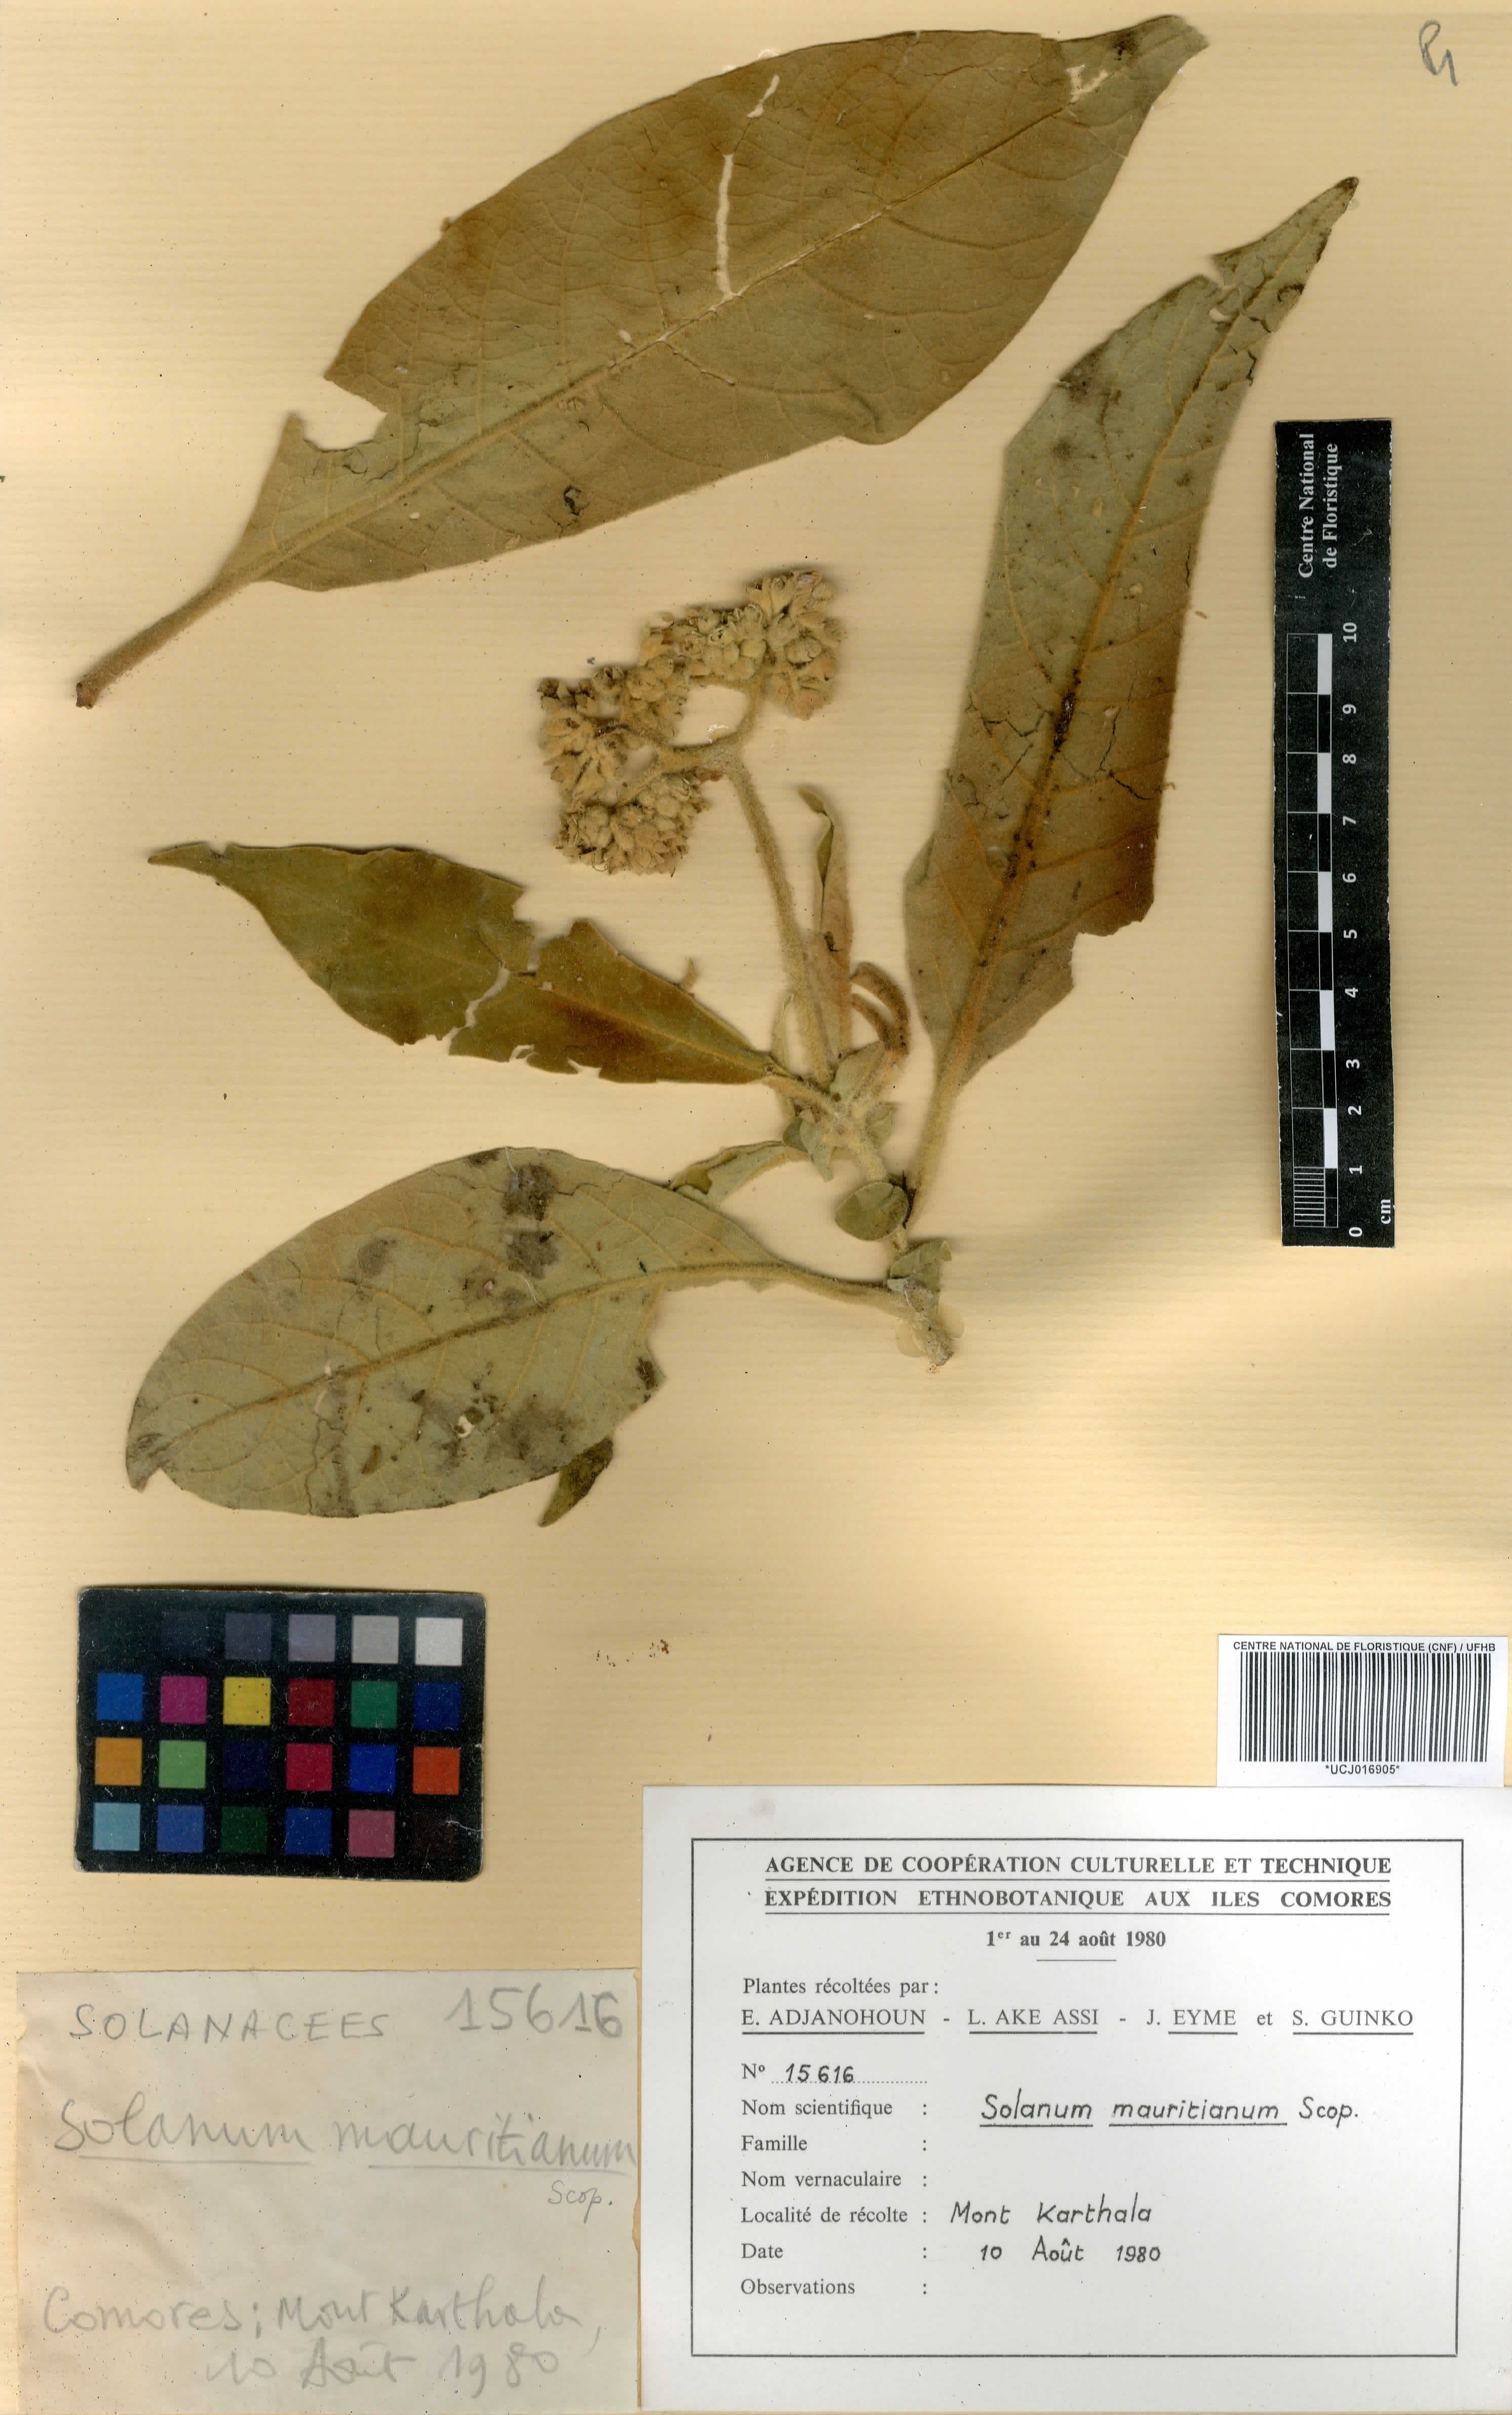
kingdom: Plantae
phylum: Tracheophyta
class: Magnoliopsida
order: Solanales
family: Solanaceae
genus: Solanum
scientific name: Solanum mammosum
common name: Nipple fruit
